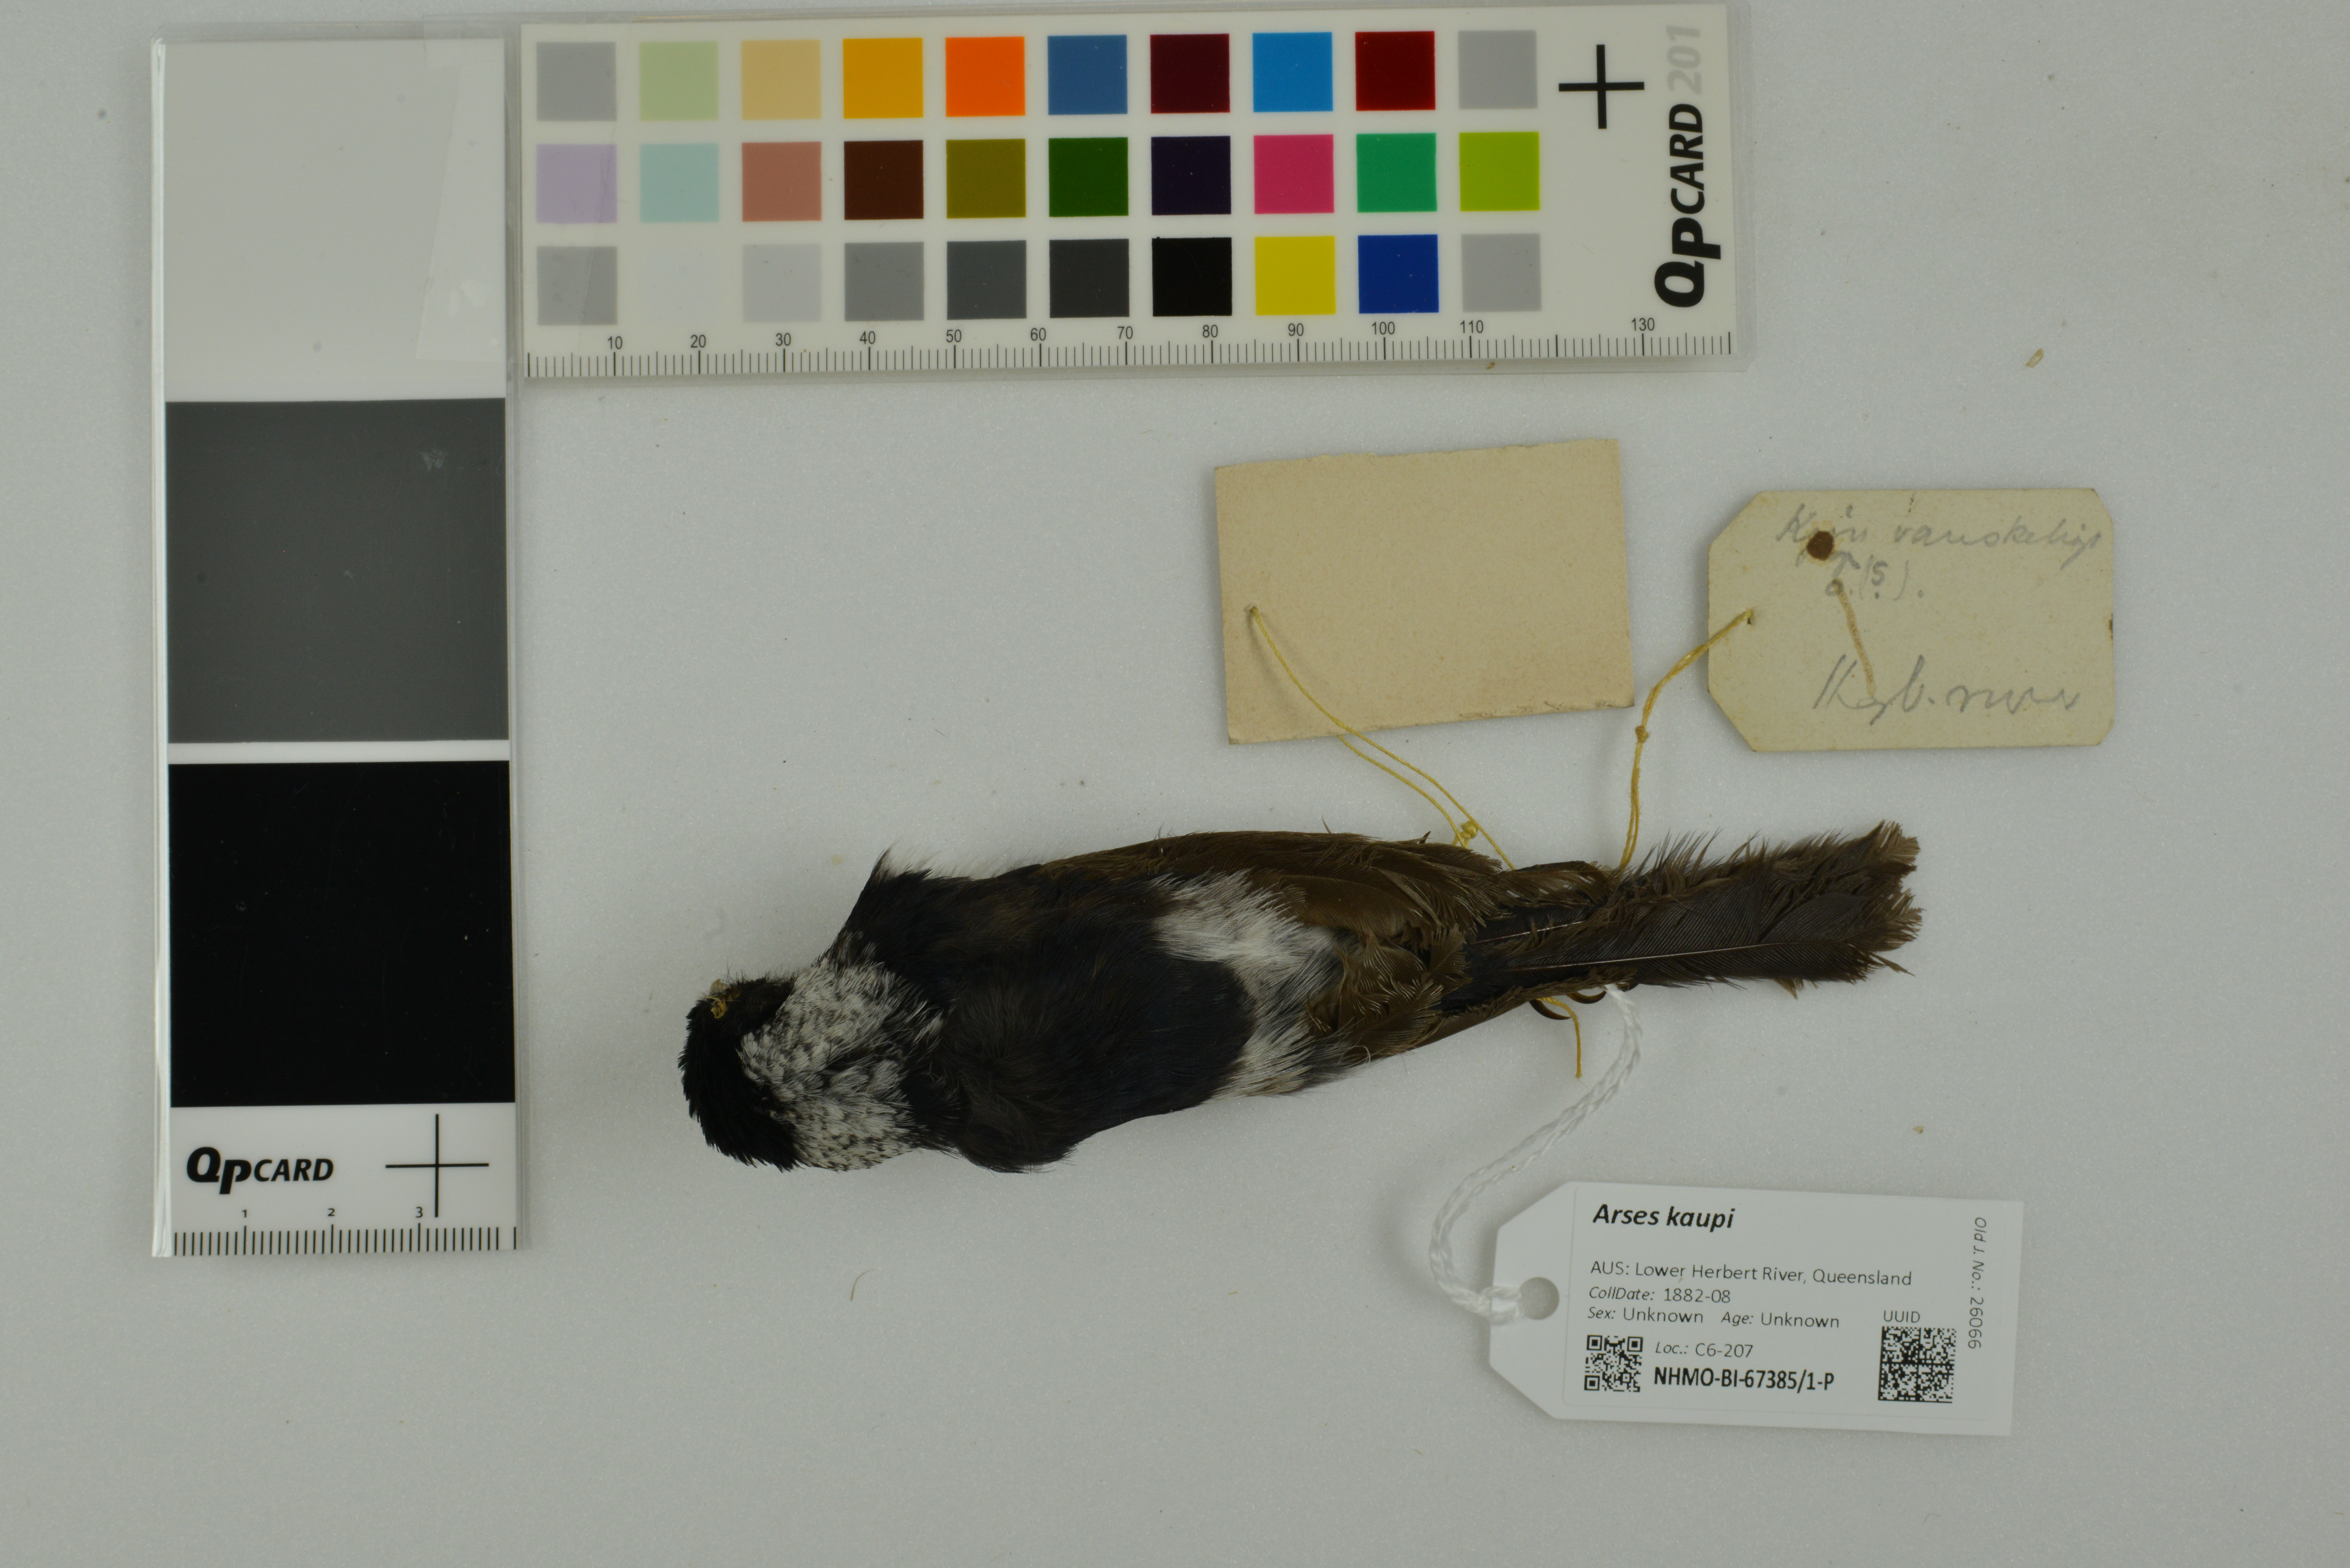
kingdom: Animalia
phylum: Chordata
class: Aves
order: Passeriformes
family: Monarchidae
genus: Arses
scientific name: Arses kaupi
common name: Pied monarch
